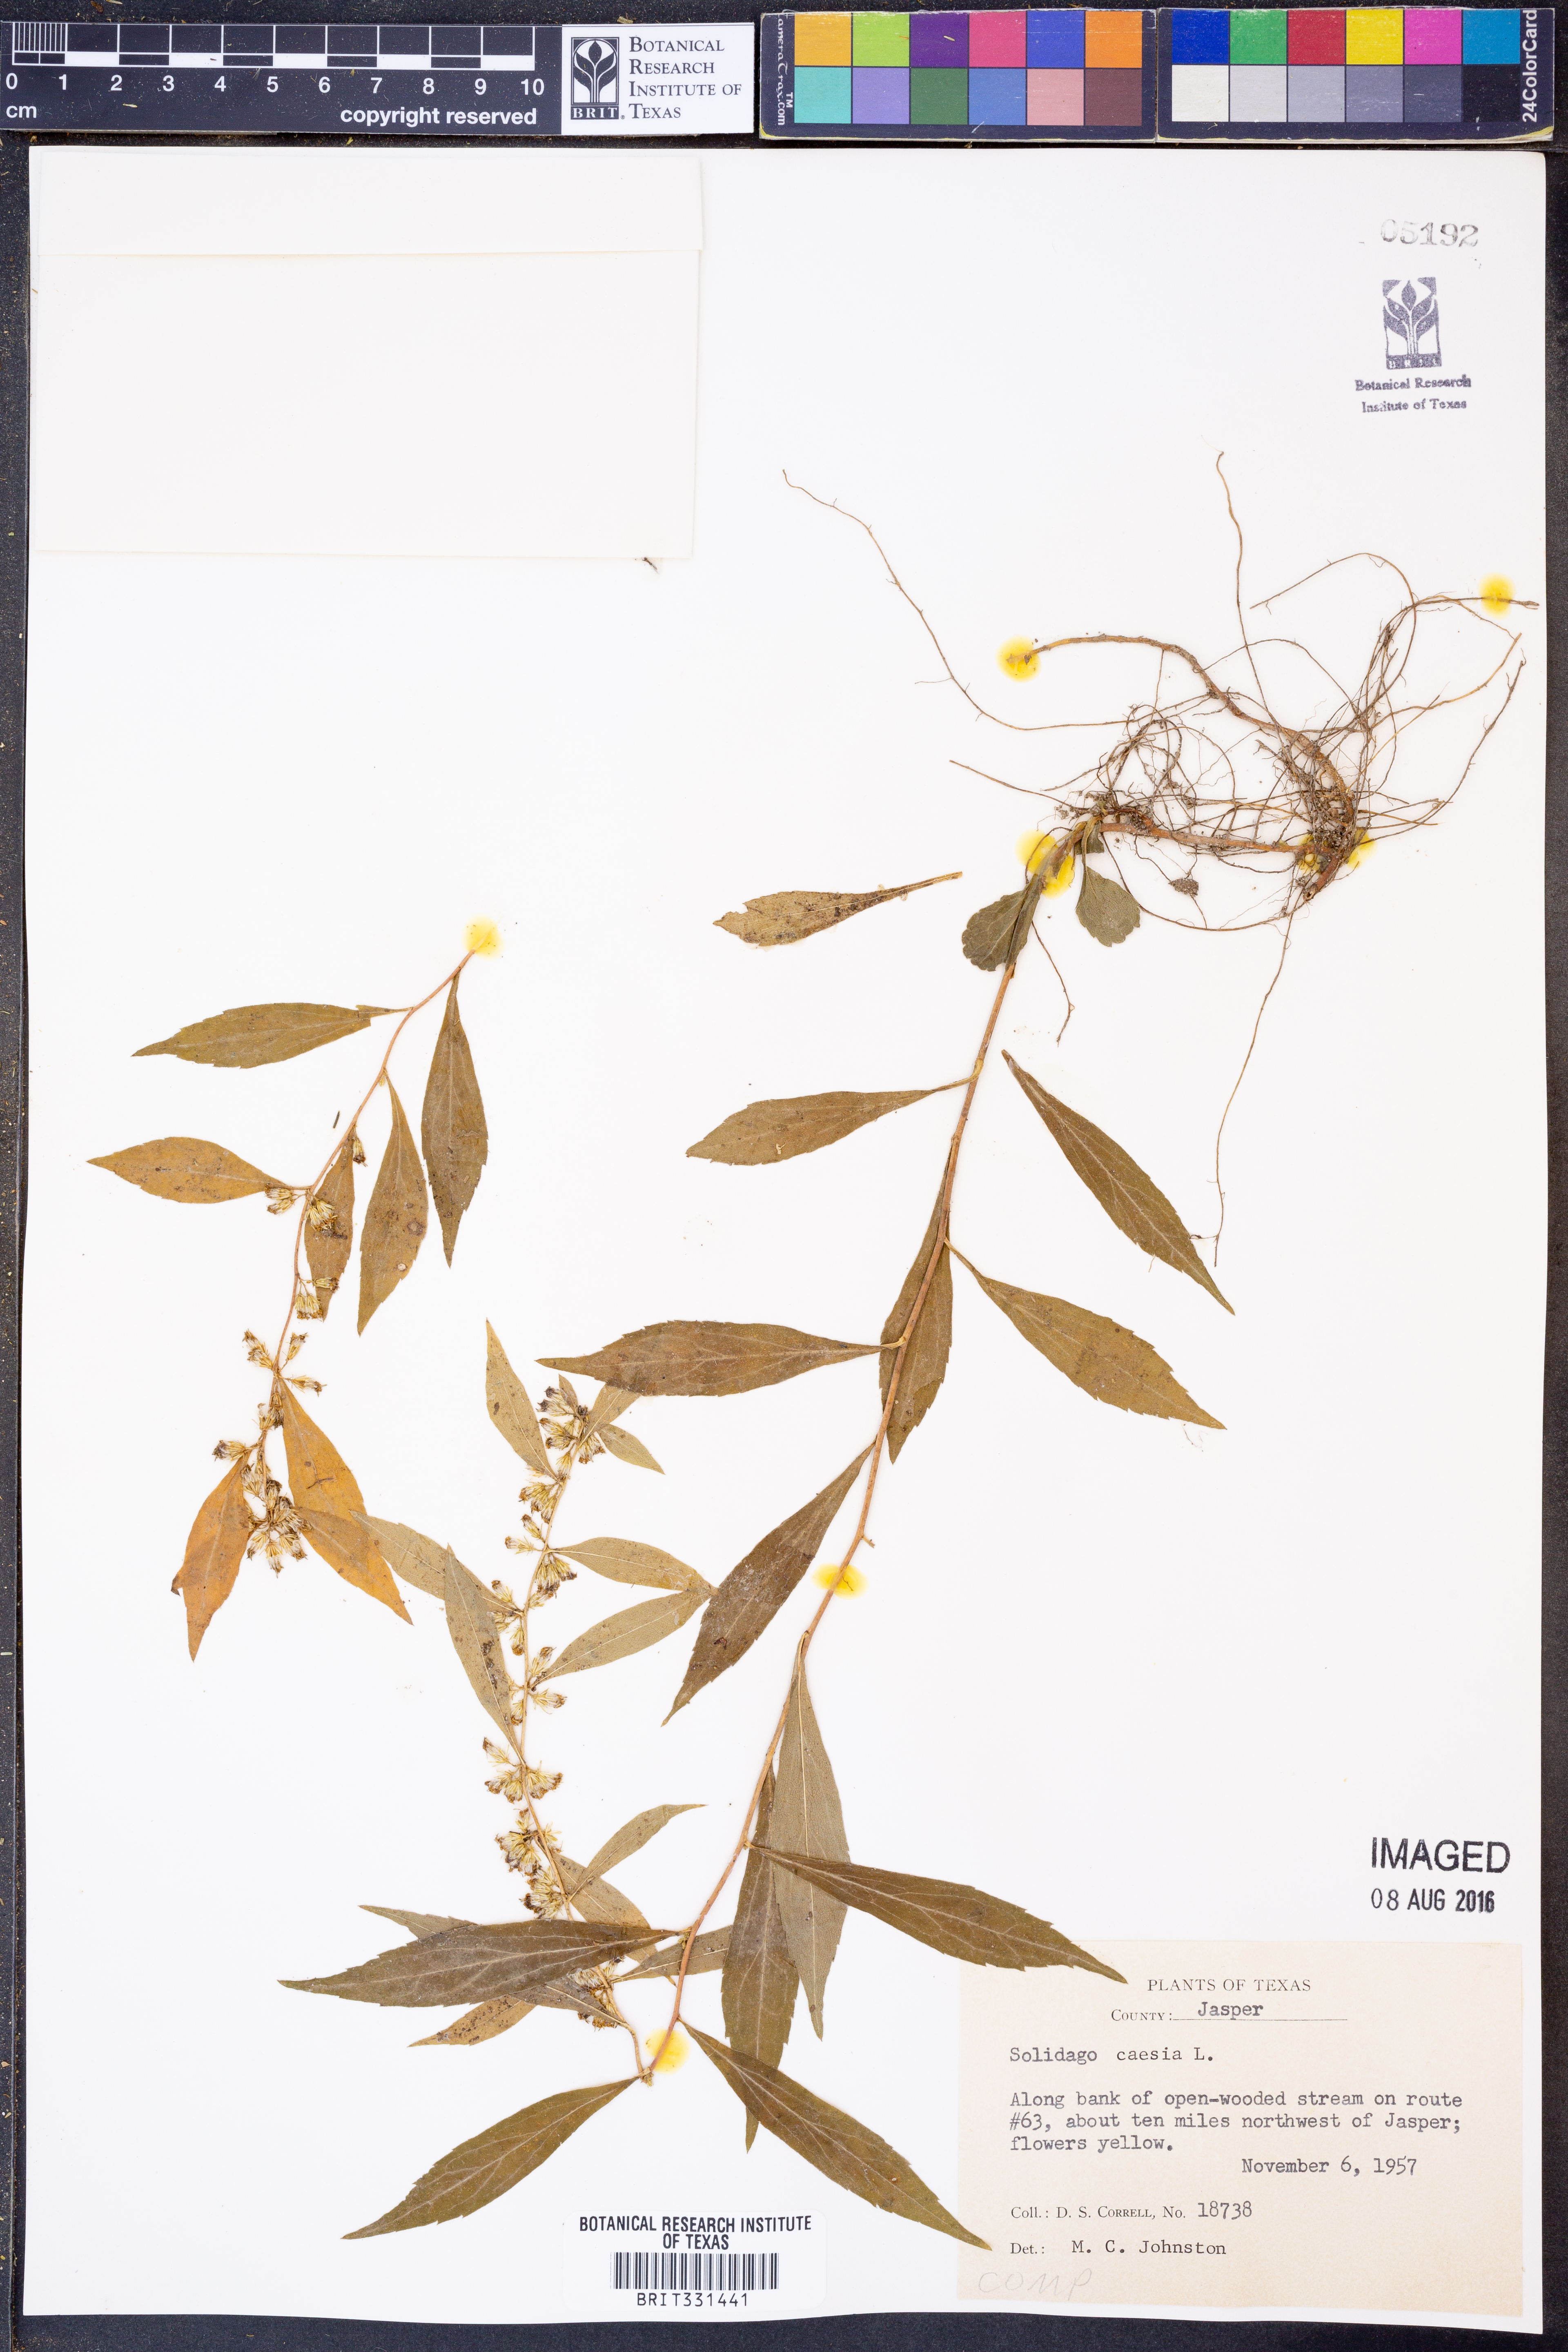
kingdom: Plantae
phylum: Tracheophyta
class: Magnoliopsida
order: Asterales
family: Asteraceae
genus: Solidago
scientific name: Solidago caesia
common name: Woodland goldenrod
